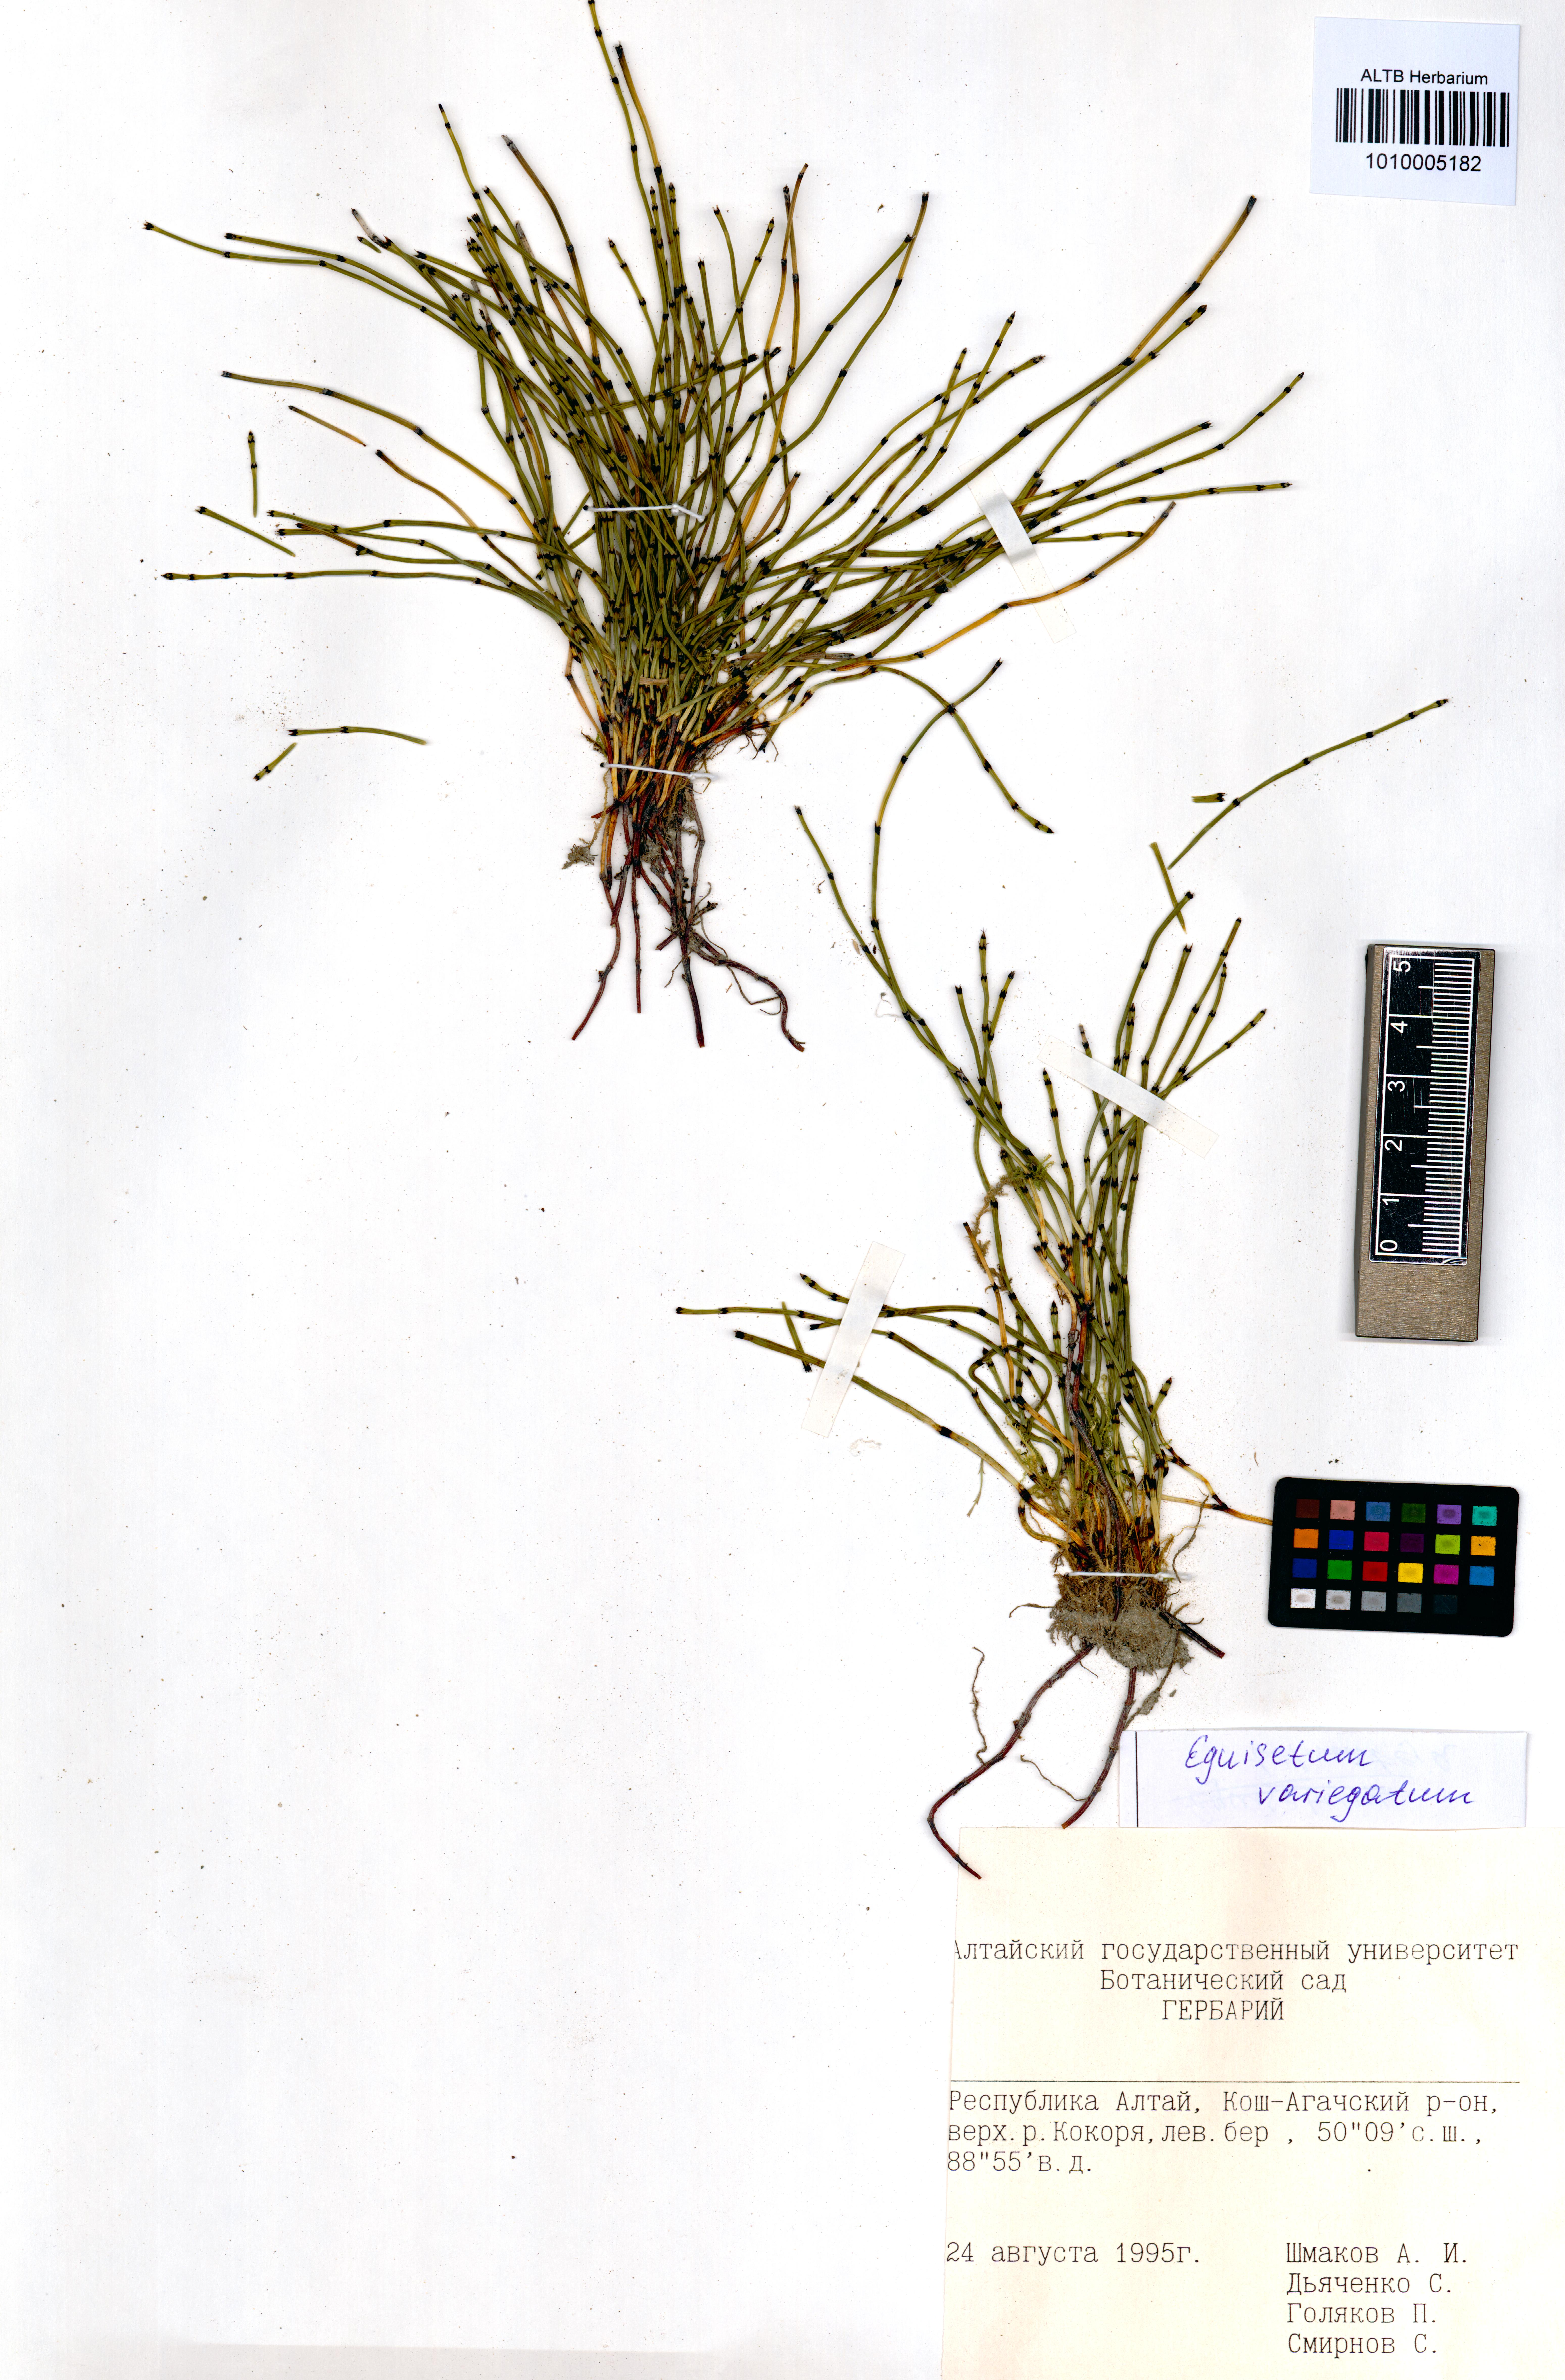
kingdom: Plantae
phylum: Tracheophyta
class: Polypodiopsida
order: Equisetales
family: Equisetaceae
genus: Equisetum
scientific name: Equisetum variegatum
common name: Variegated horsetail
